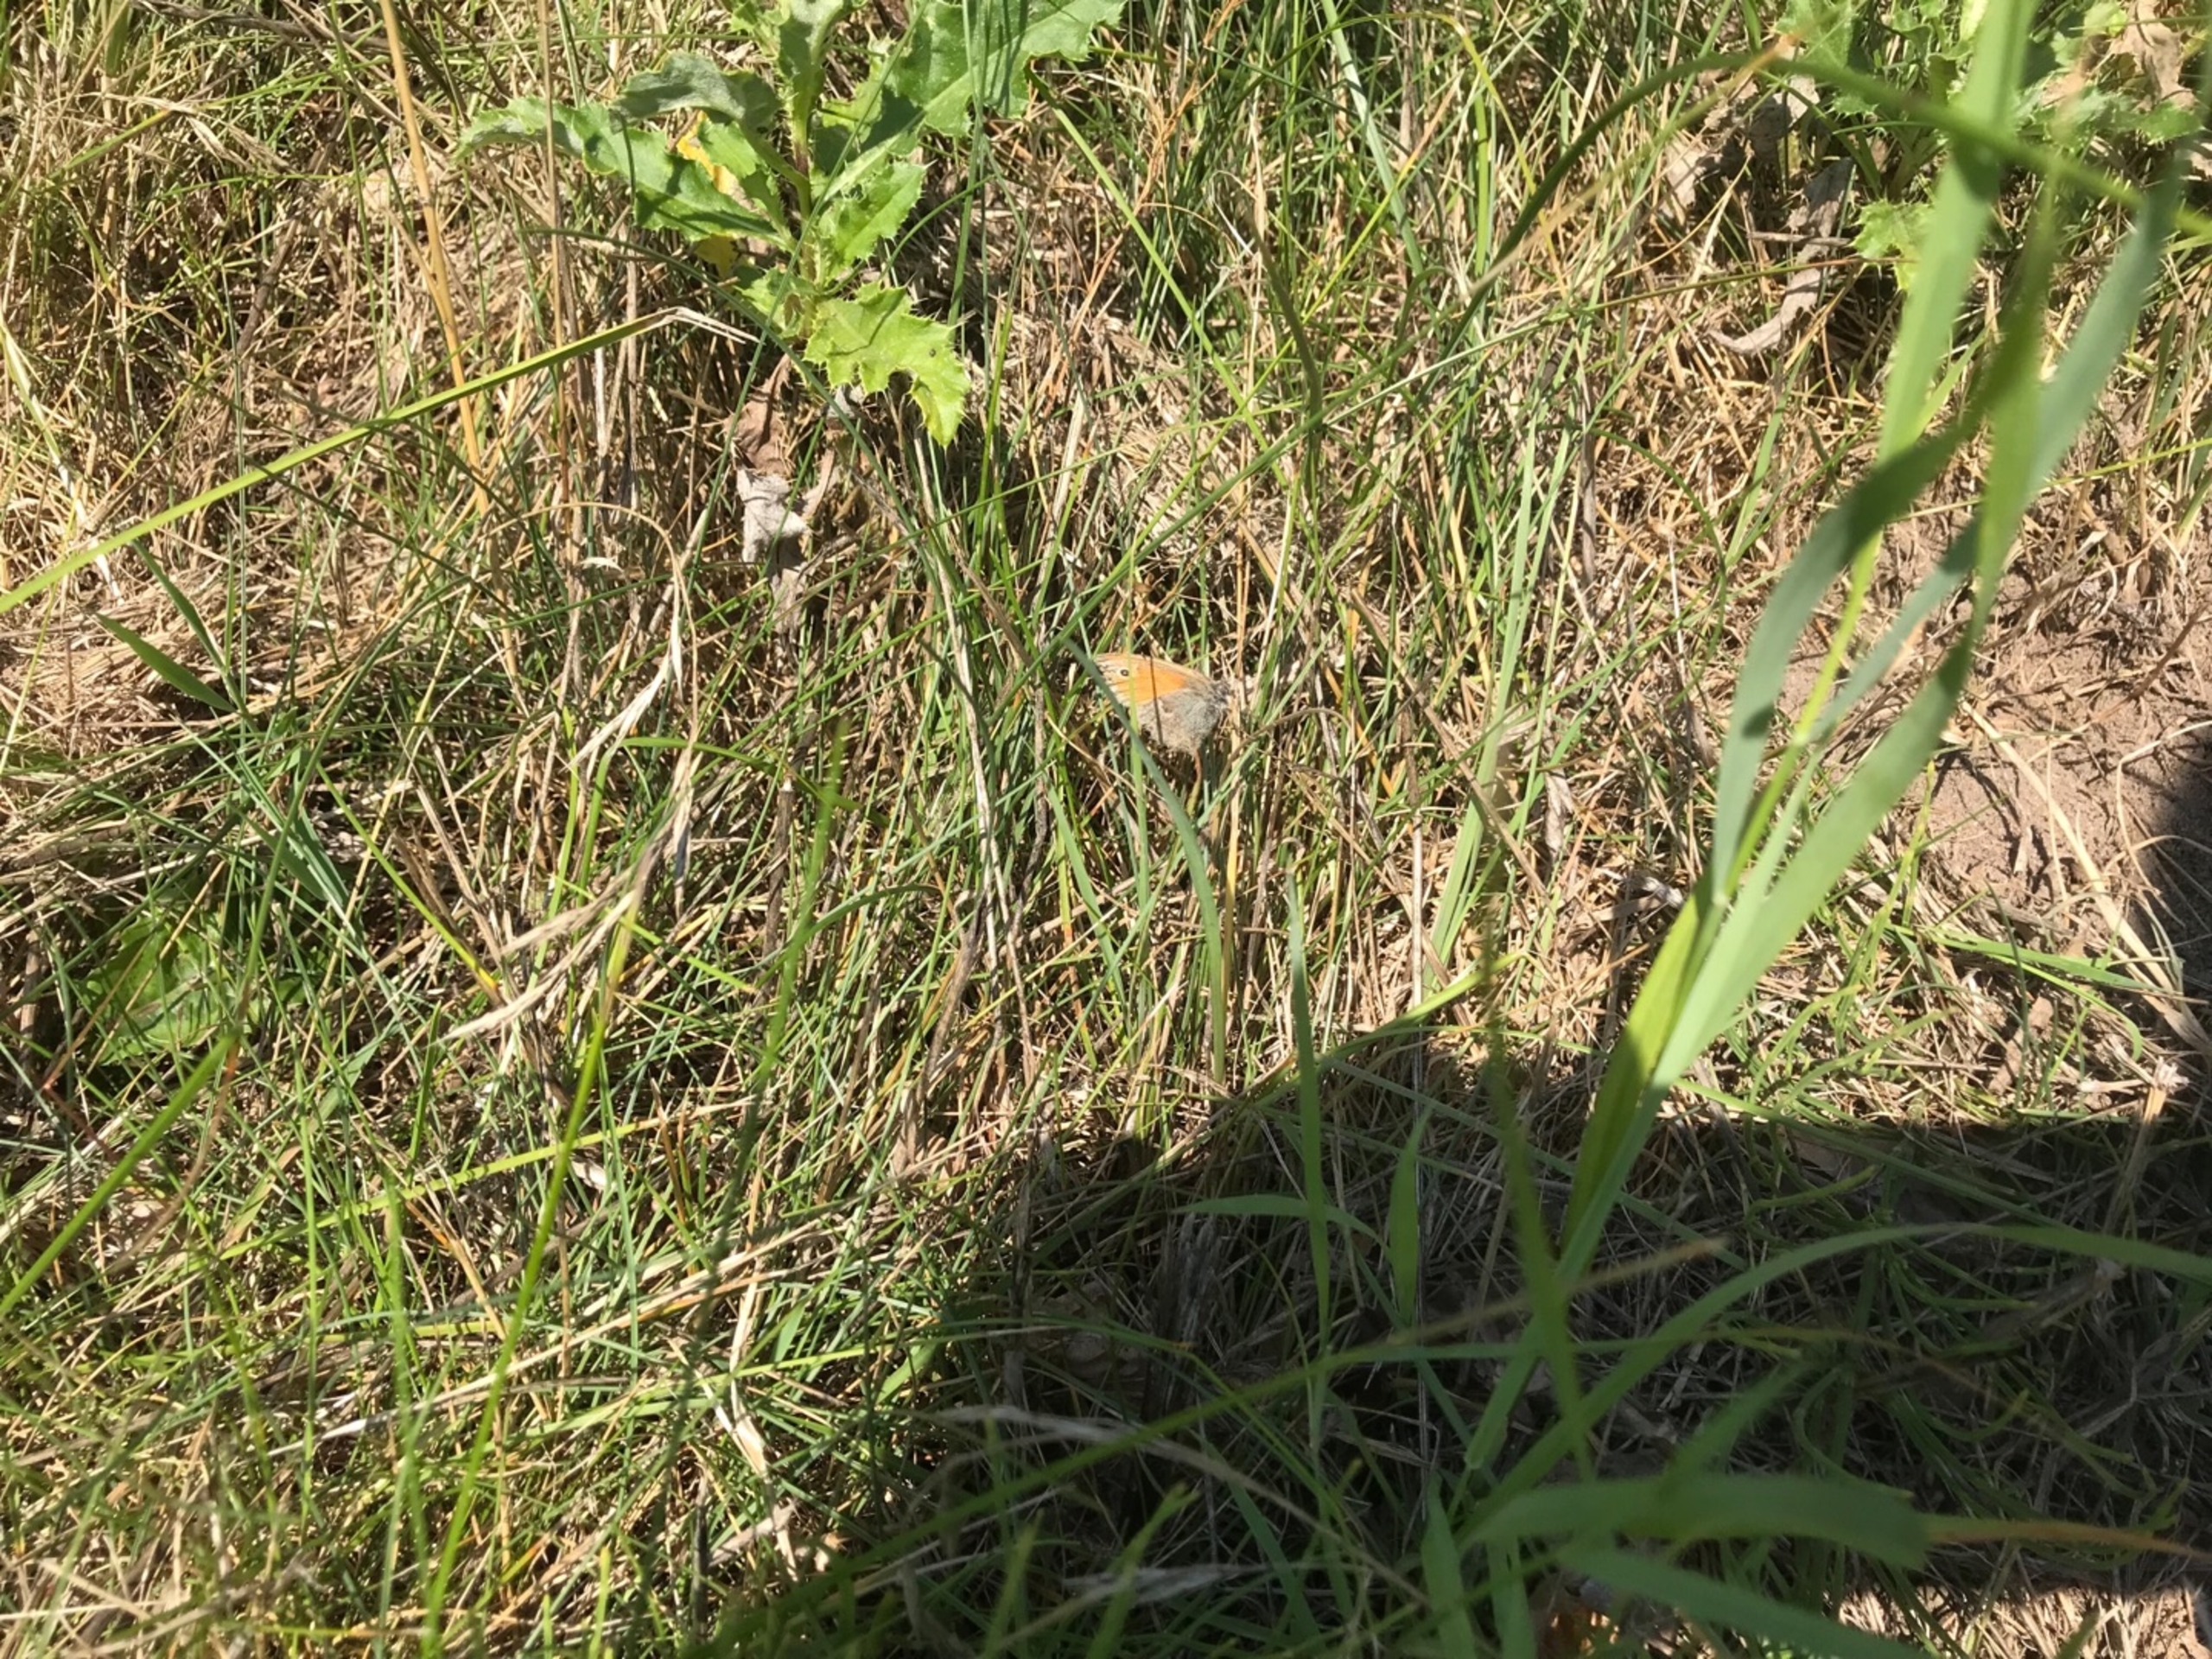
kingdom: Animalia
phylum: Arthropoda
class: Insecta
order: Lepidoptera
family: Nymphalidae
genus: Coenonympha
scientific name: Coenonympha pamphilus
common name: Okkergul randøje
